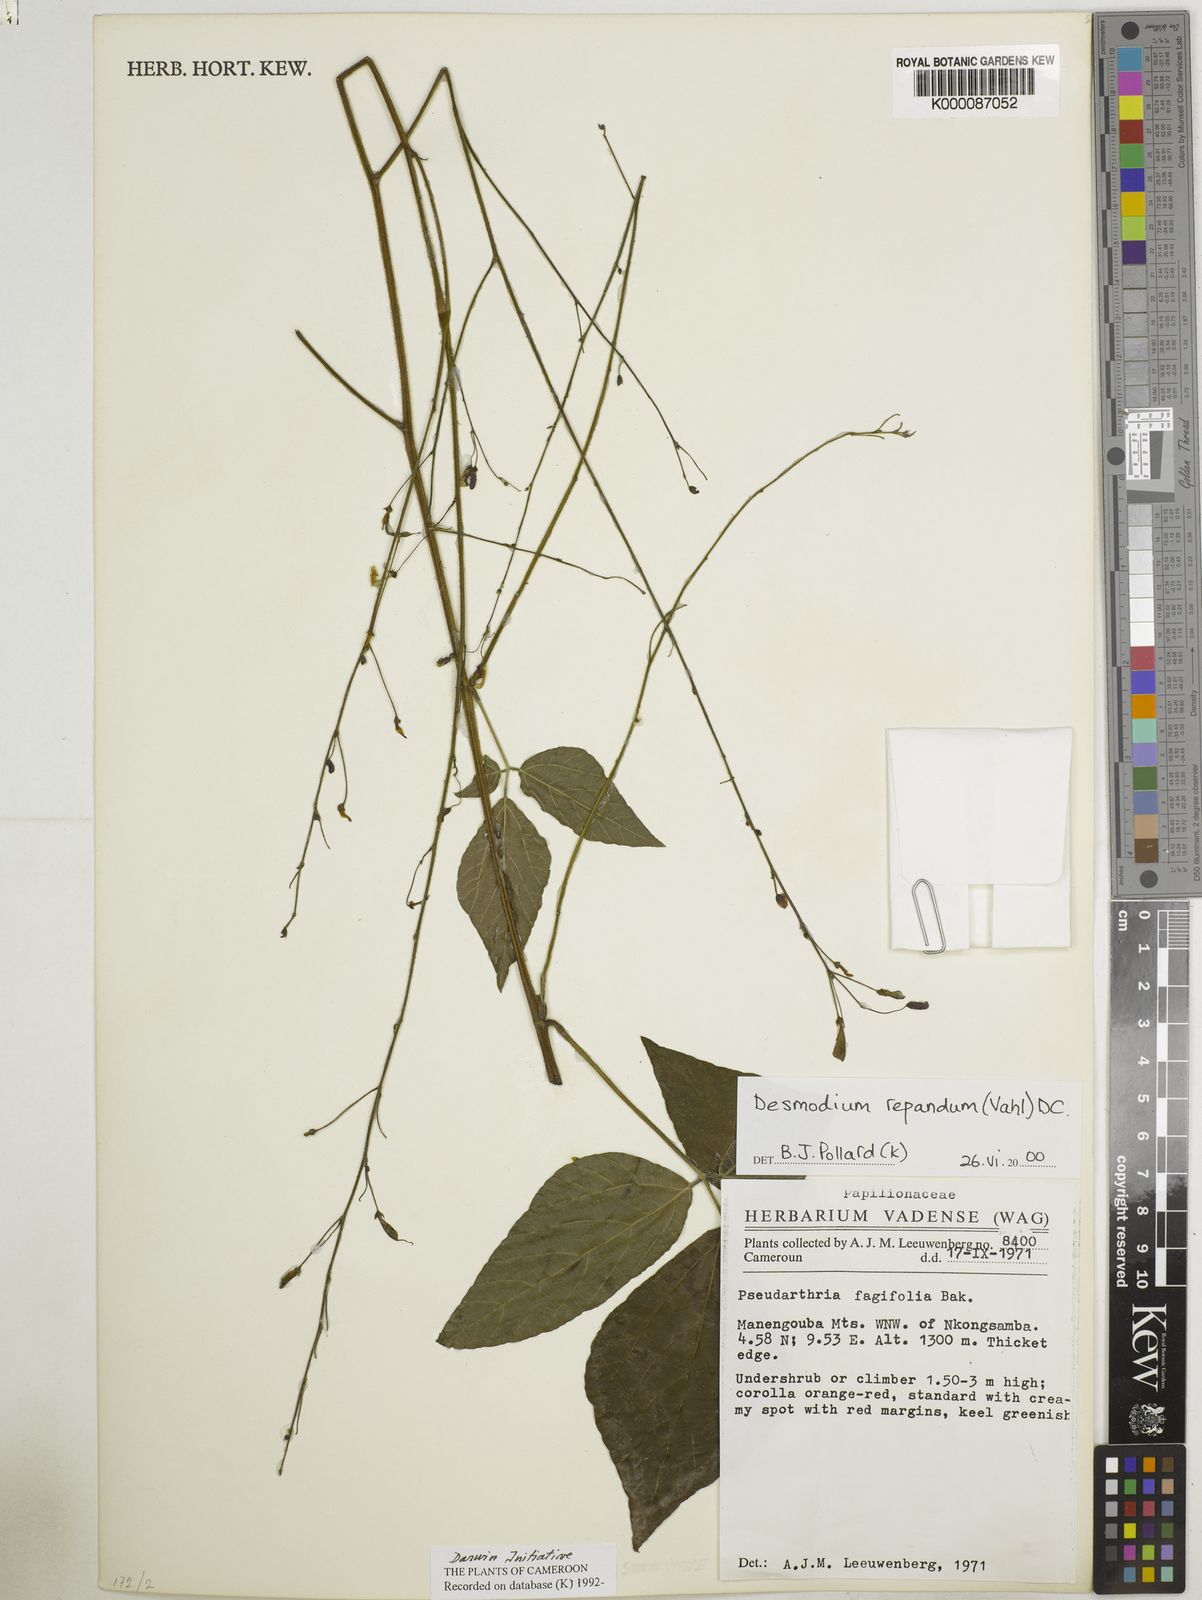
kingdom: Plantae
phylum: Tracheophyta
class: Magnoliopsida
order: Fabales
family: Fabaceae
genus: Desmodium
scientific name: Desmodium
